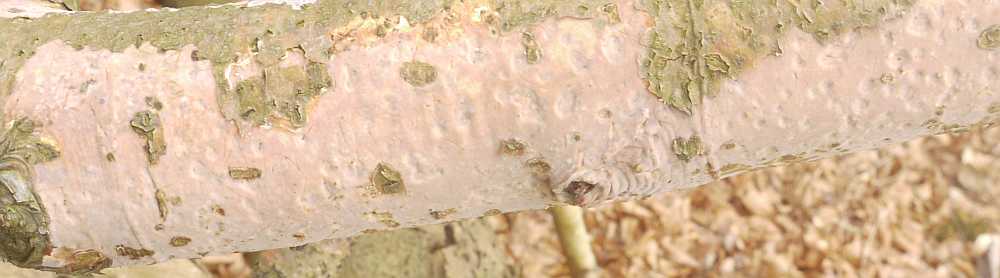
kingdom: Fungi
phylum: Basidiomycota
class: Agaricomycetes
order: Corticiales
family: Vuilleminiaceae
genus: Vuilleminia
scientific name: Vuilleminia comedens
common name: almindelig barksprænger
